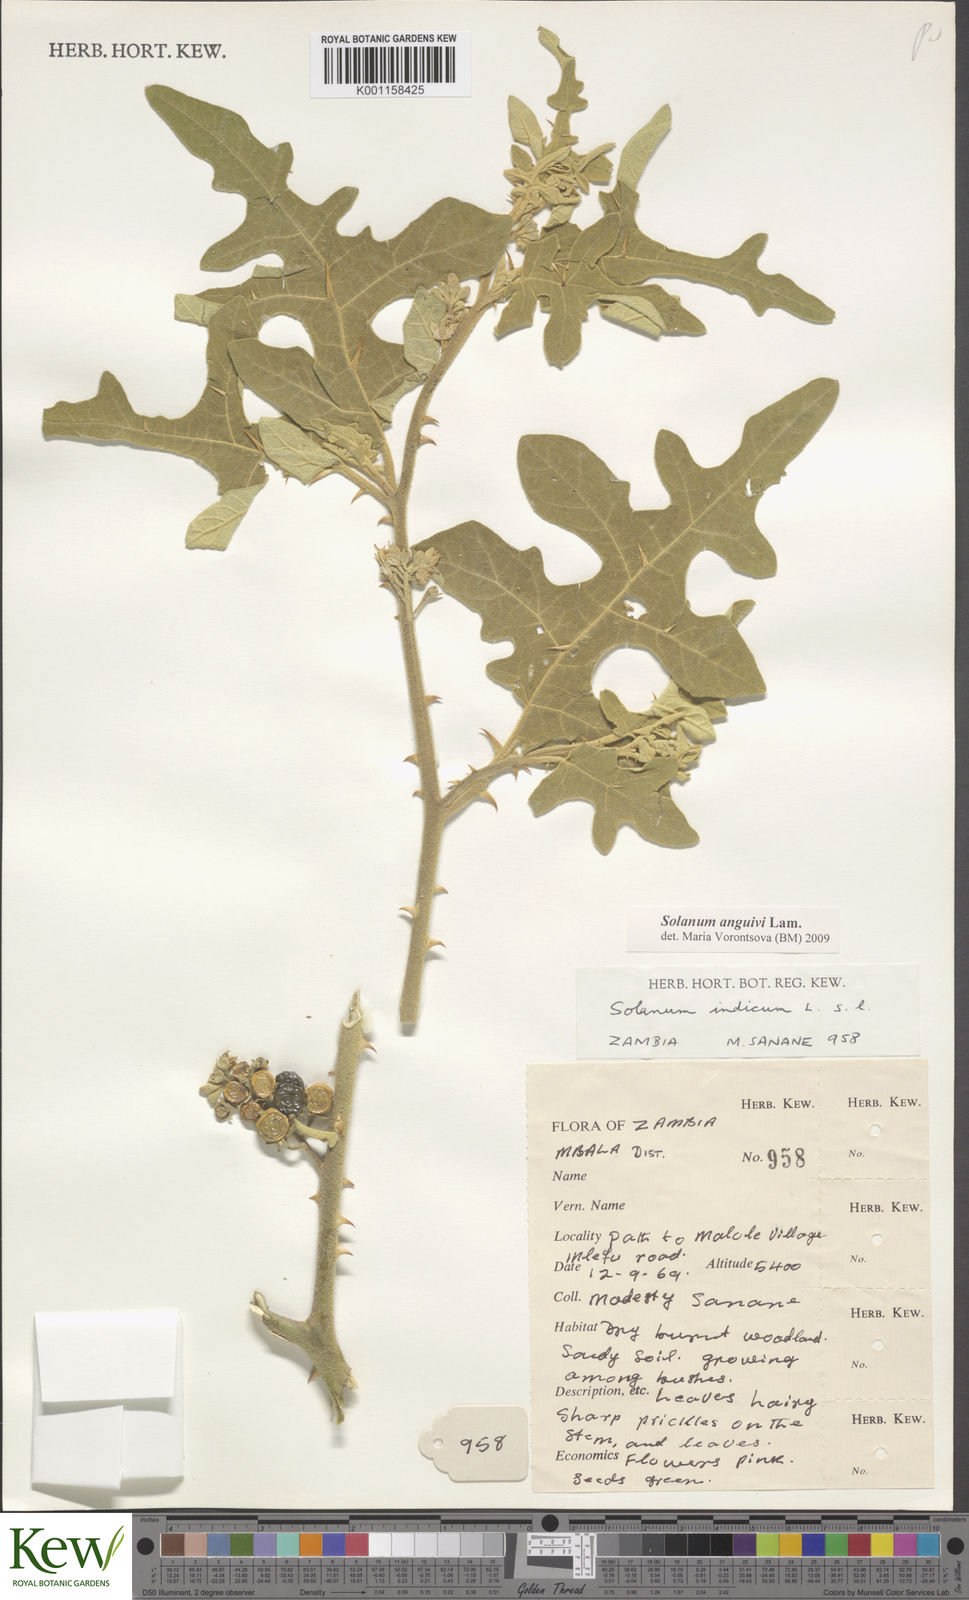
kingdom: Plantae
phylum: Tracheophyta
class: Magnoliopsida
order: Solanales
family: Solanaceae
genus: Solanum
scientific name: Solanum anguivi
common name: Forest bitterberry
